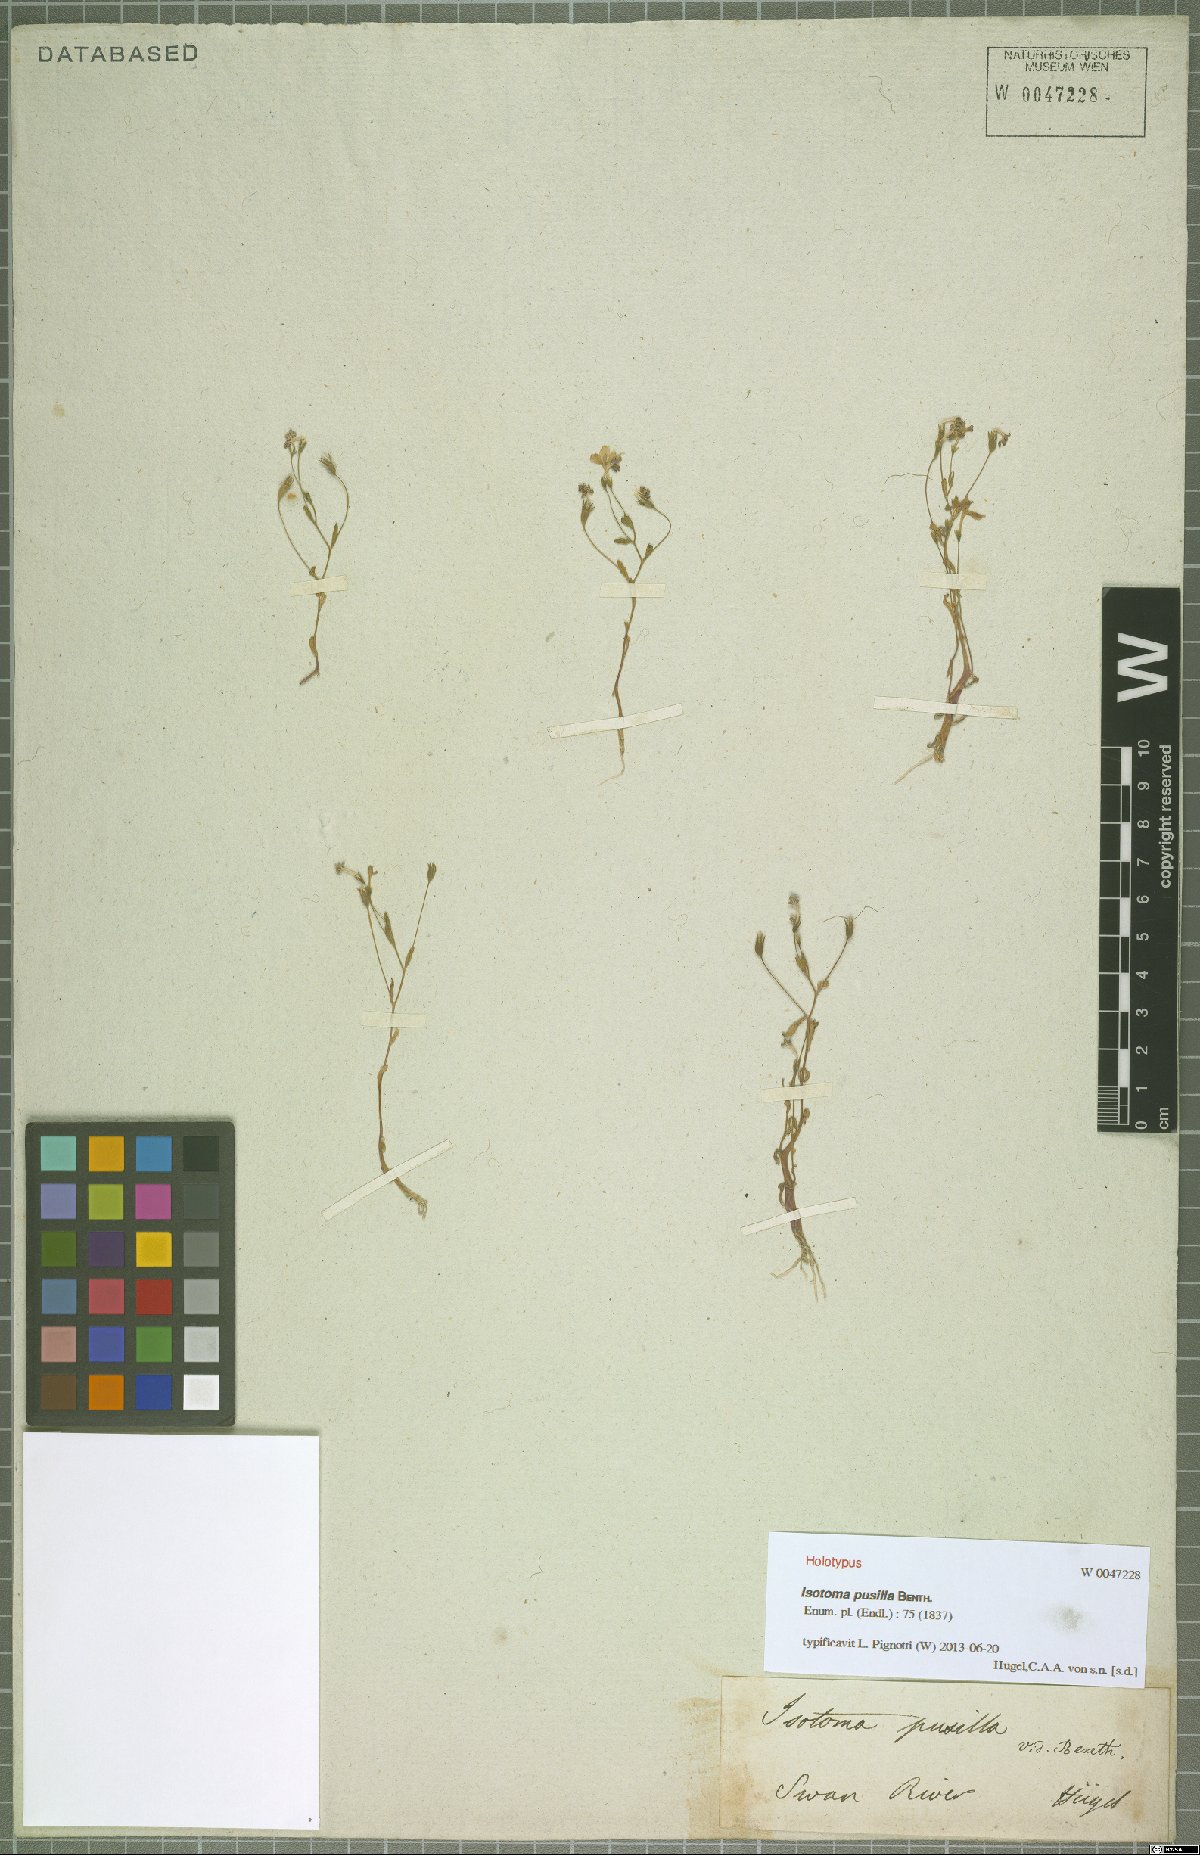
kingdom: Plantae
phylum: Tracheophyta
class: Magnoliopsida
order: Asterales
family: Campanulaceae
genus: Isotoma
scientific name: Isotoma pusilla
